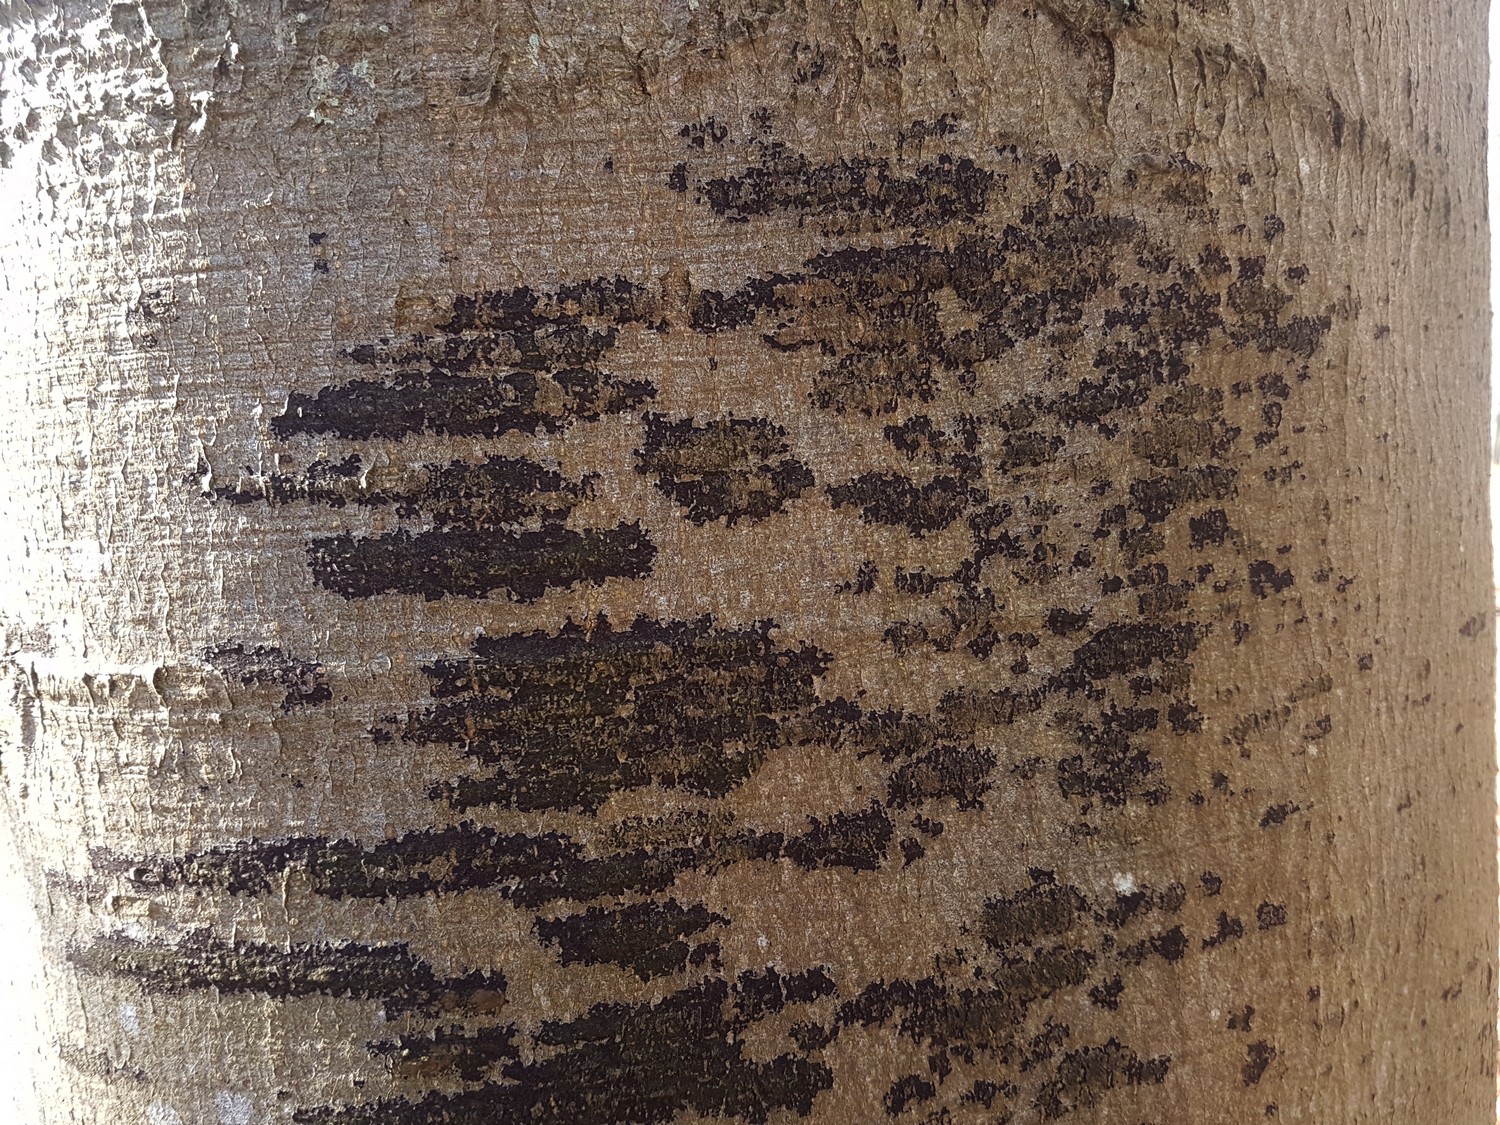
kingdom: Fungi
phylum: Ascomycota
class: Leotiomycetes
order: Rhytismatales
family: Ascodichaenaceae
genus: Ascodichaena
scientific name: Ascodichaena rugosa
